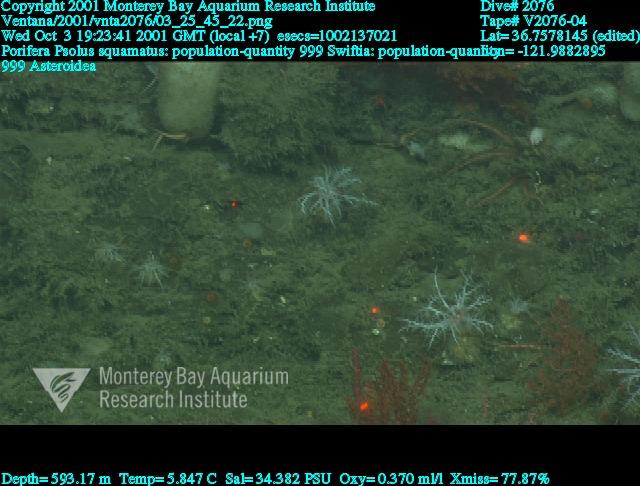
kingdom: Animalia
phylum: Porifera
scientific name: Porifera
